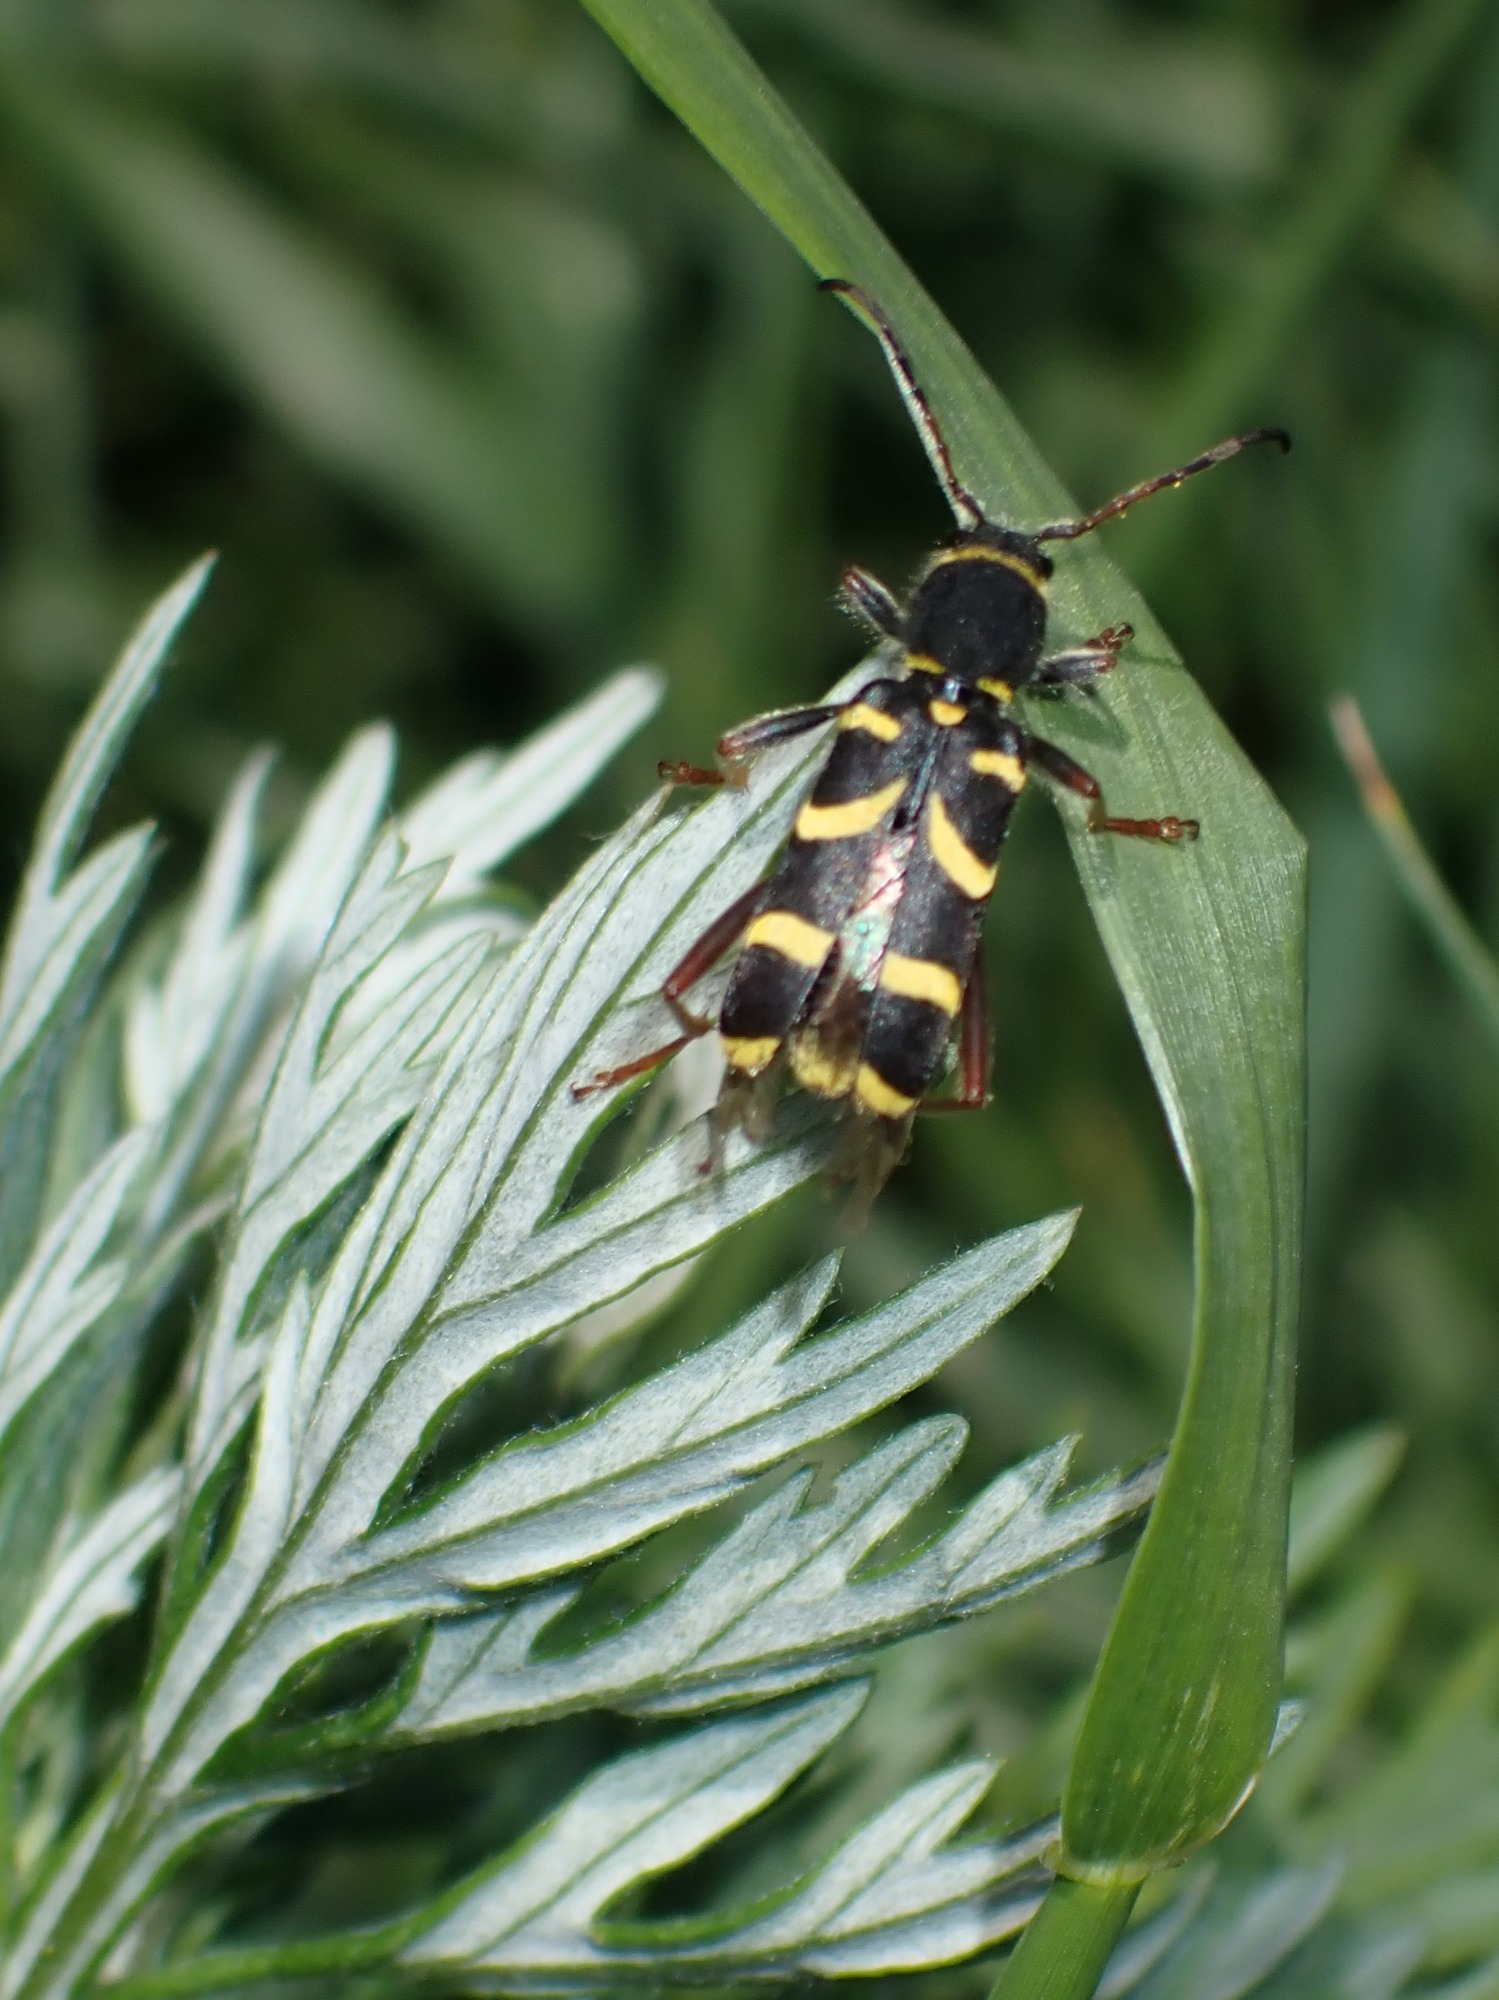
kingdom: Animalia
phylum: Arthropoda
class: Insecta
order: Coleoptera
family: Cerambycidae
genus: Clytus
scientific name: Clytus arietis
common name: Lille hvepsebuk
